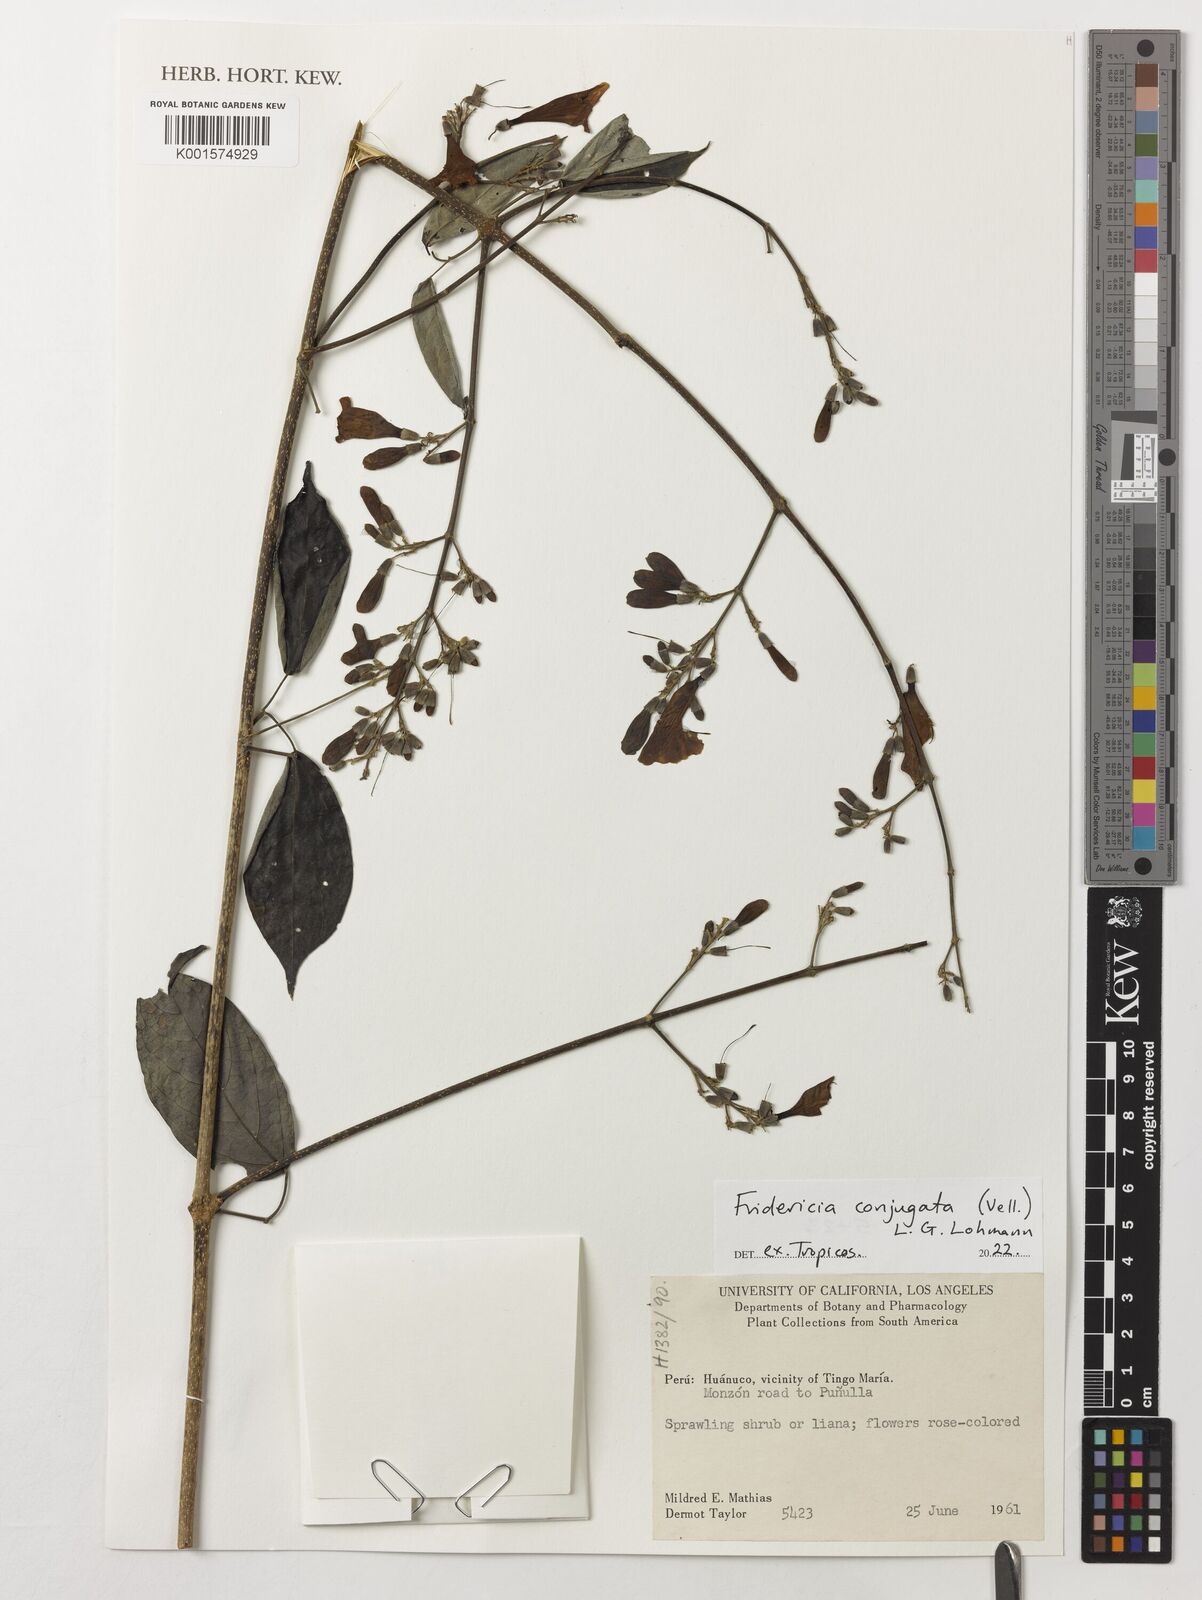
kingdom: Plantae
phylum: Tracheophyta
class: Magnoliopsida
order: Lamiales
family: Bignoniaceae
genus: Fridericia
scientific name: Fridericia conjugata
